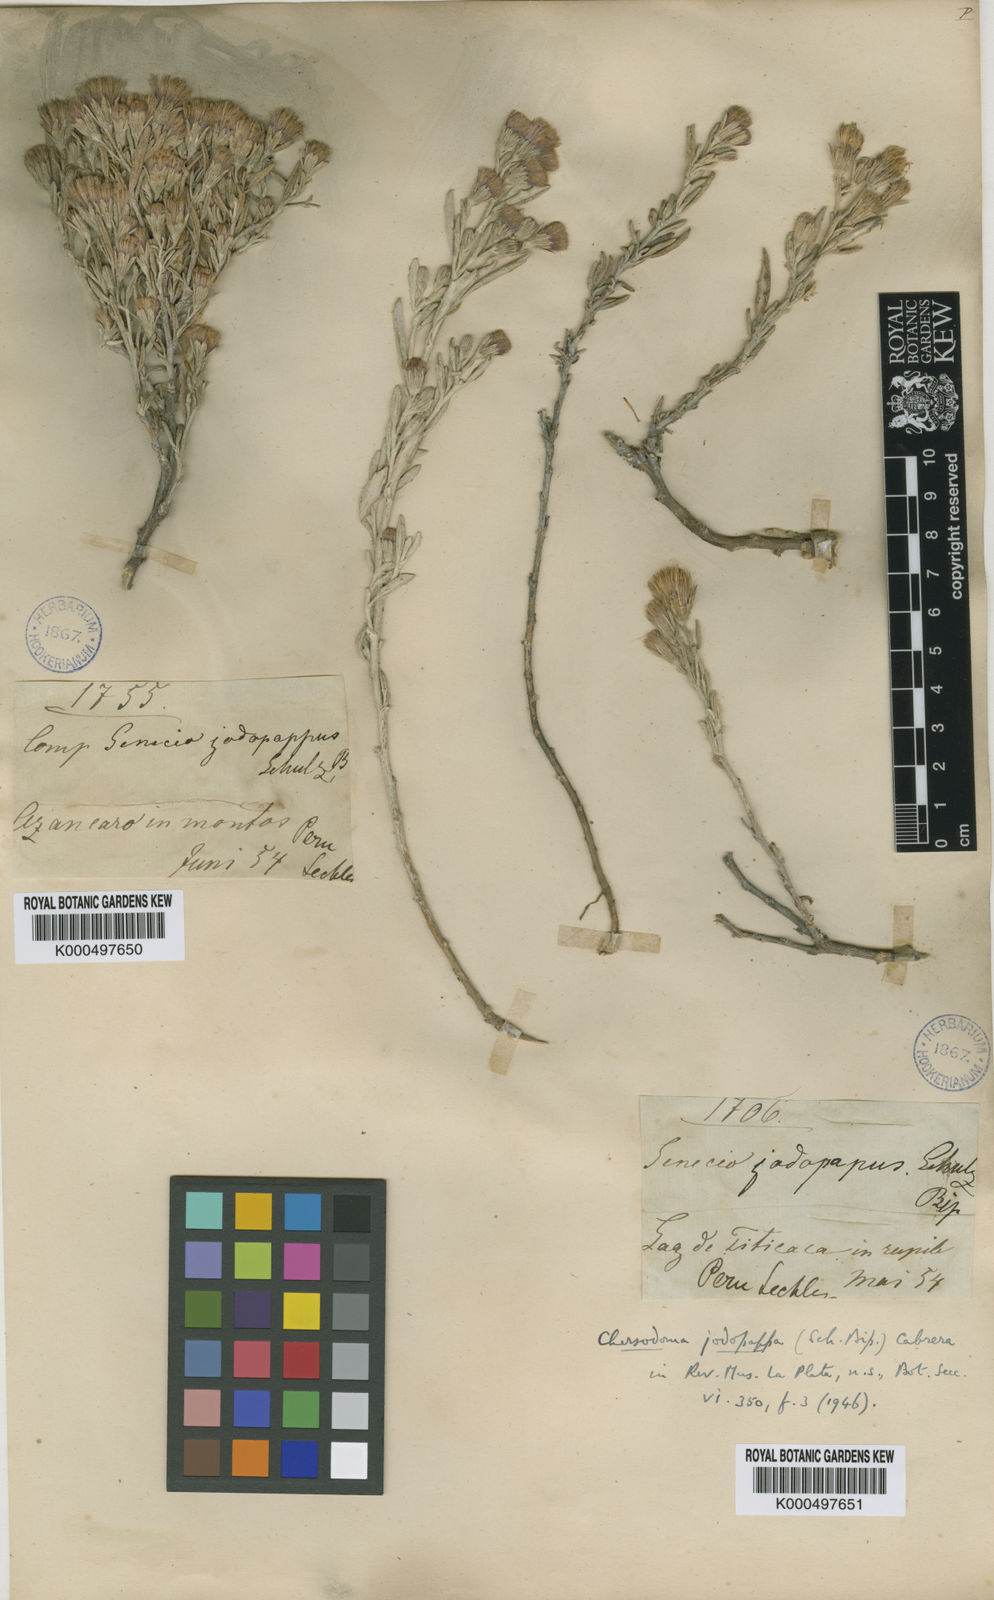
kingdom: Plantae
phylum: Tracheophyta
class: Magnoliopsida
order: Asterales
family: Asteraceae
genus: Chersodoma
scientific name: Chersodoma jodopappa
